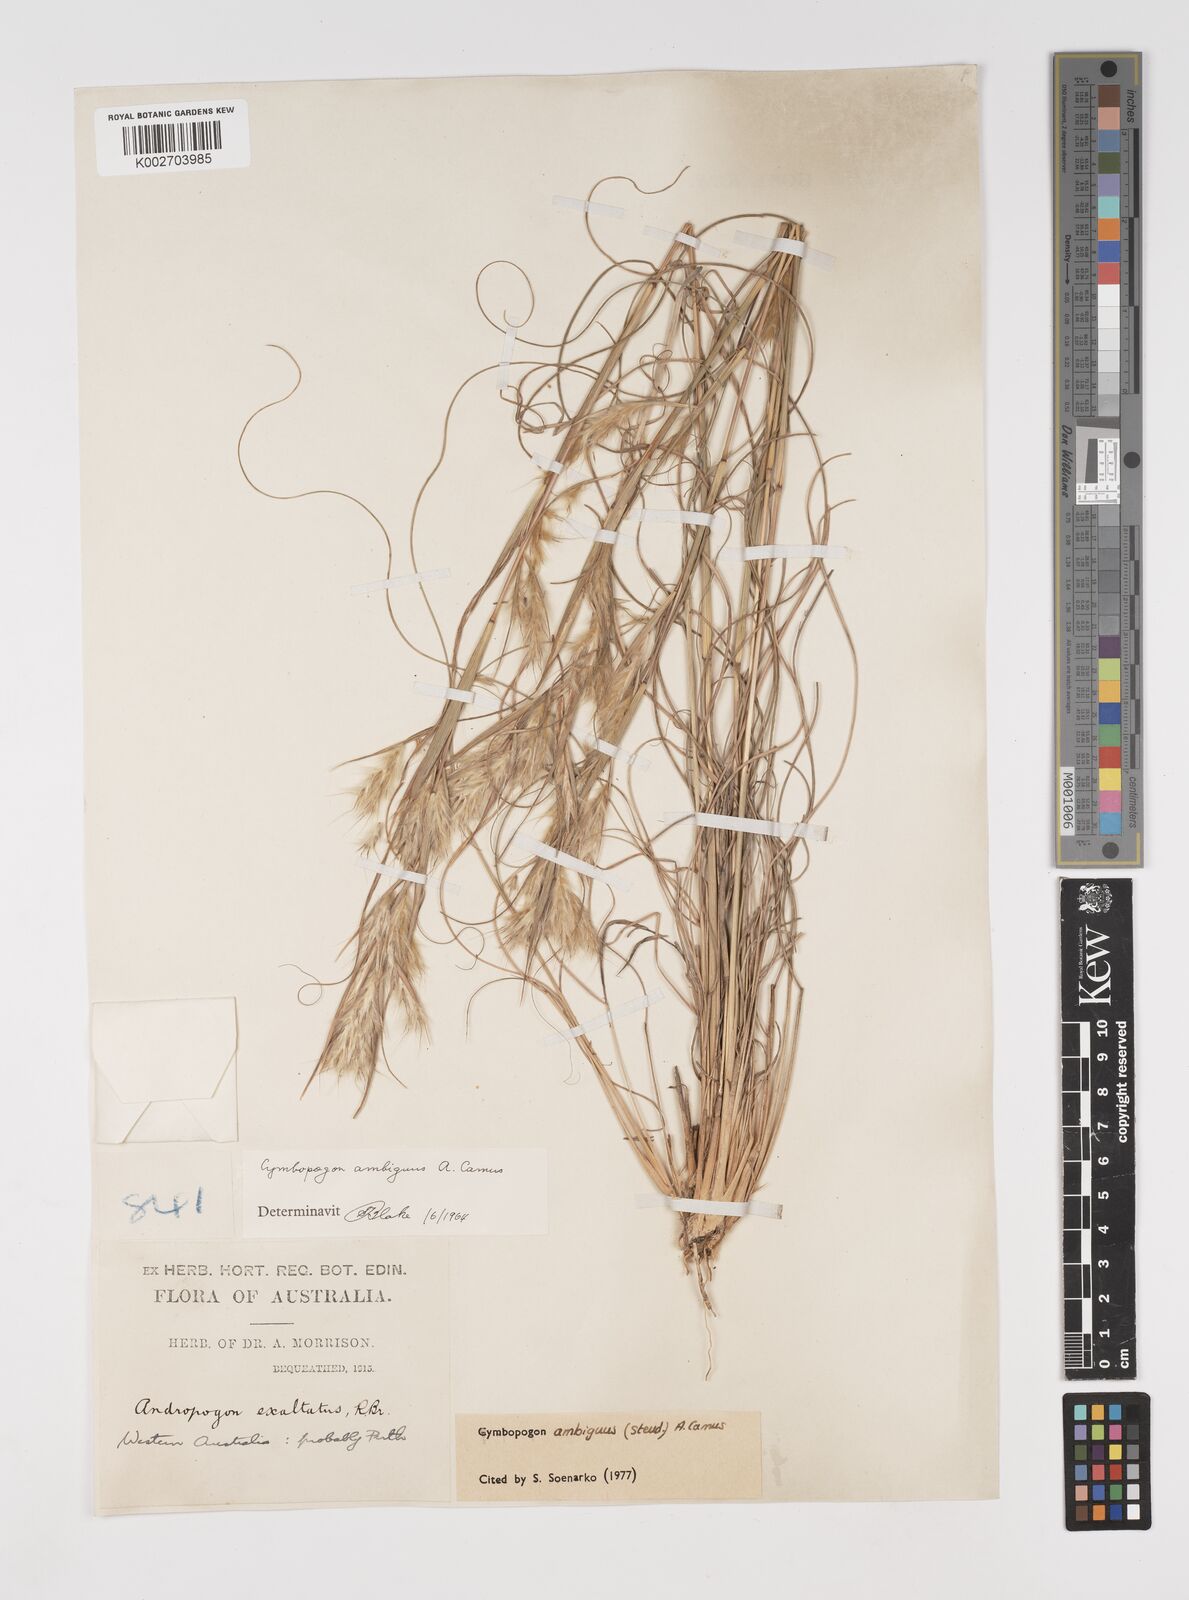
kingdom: Plantae
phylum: Tracheophyta
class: Liliopsida
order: Poales
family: Poaceae
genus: Cymbopogon
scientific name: Cymbopogon ambiguus
